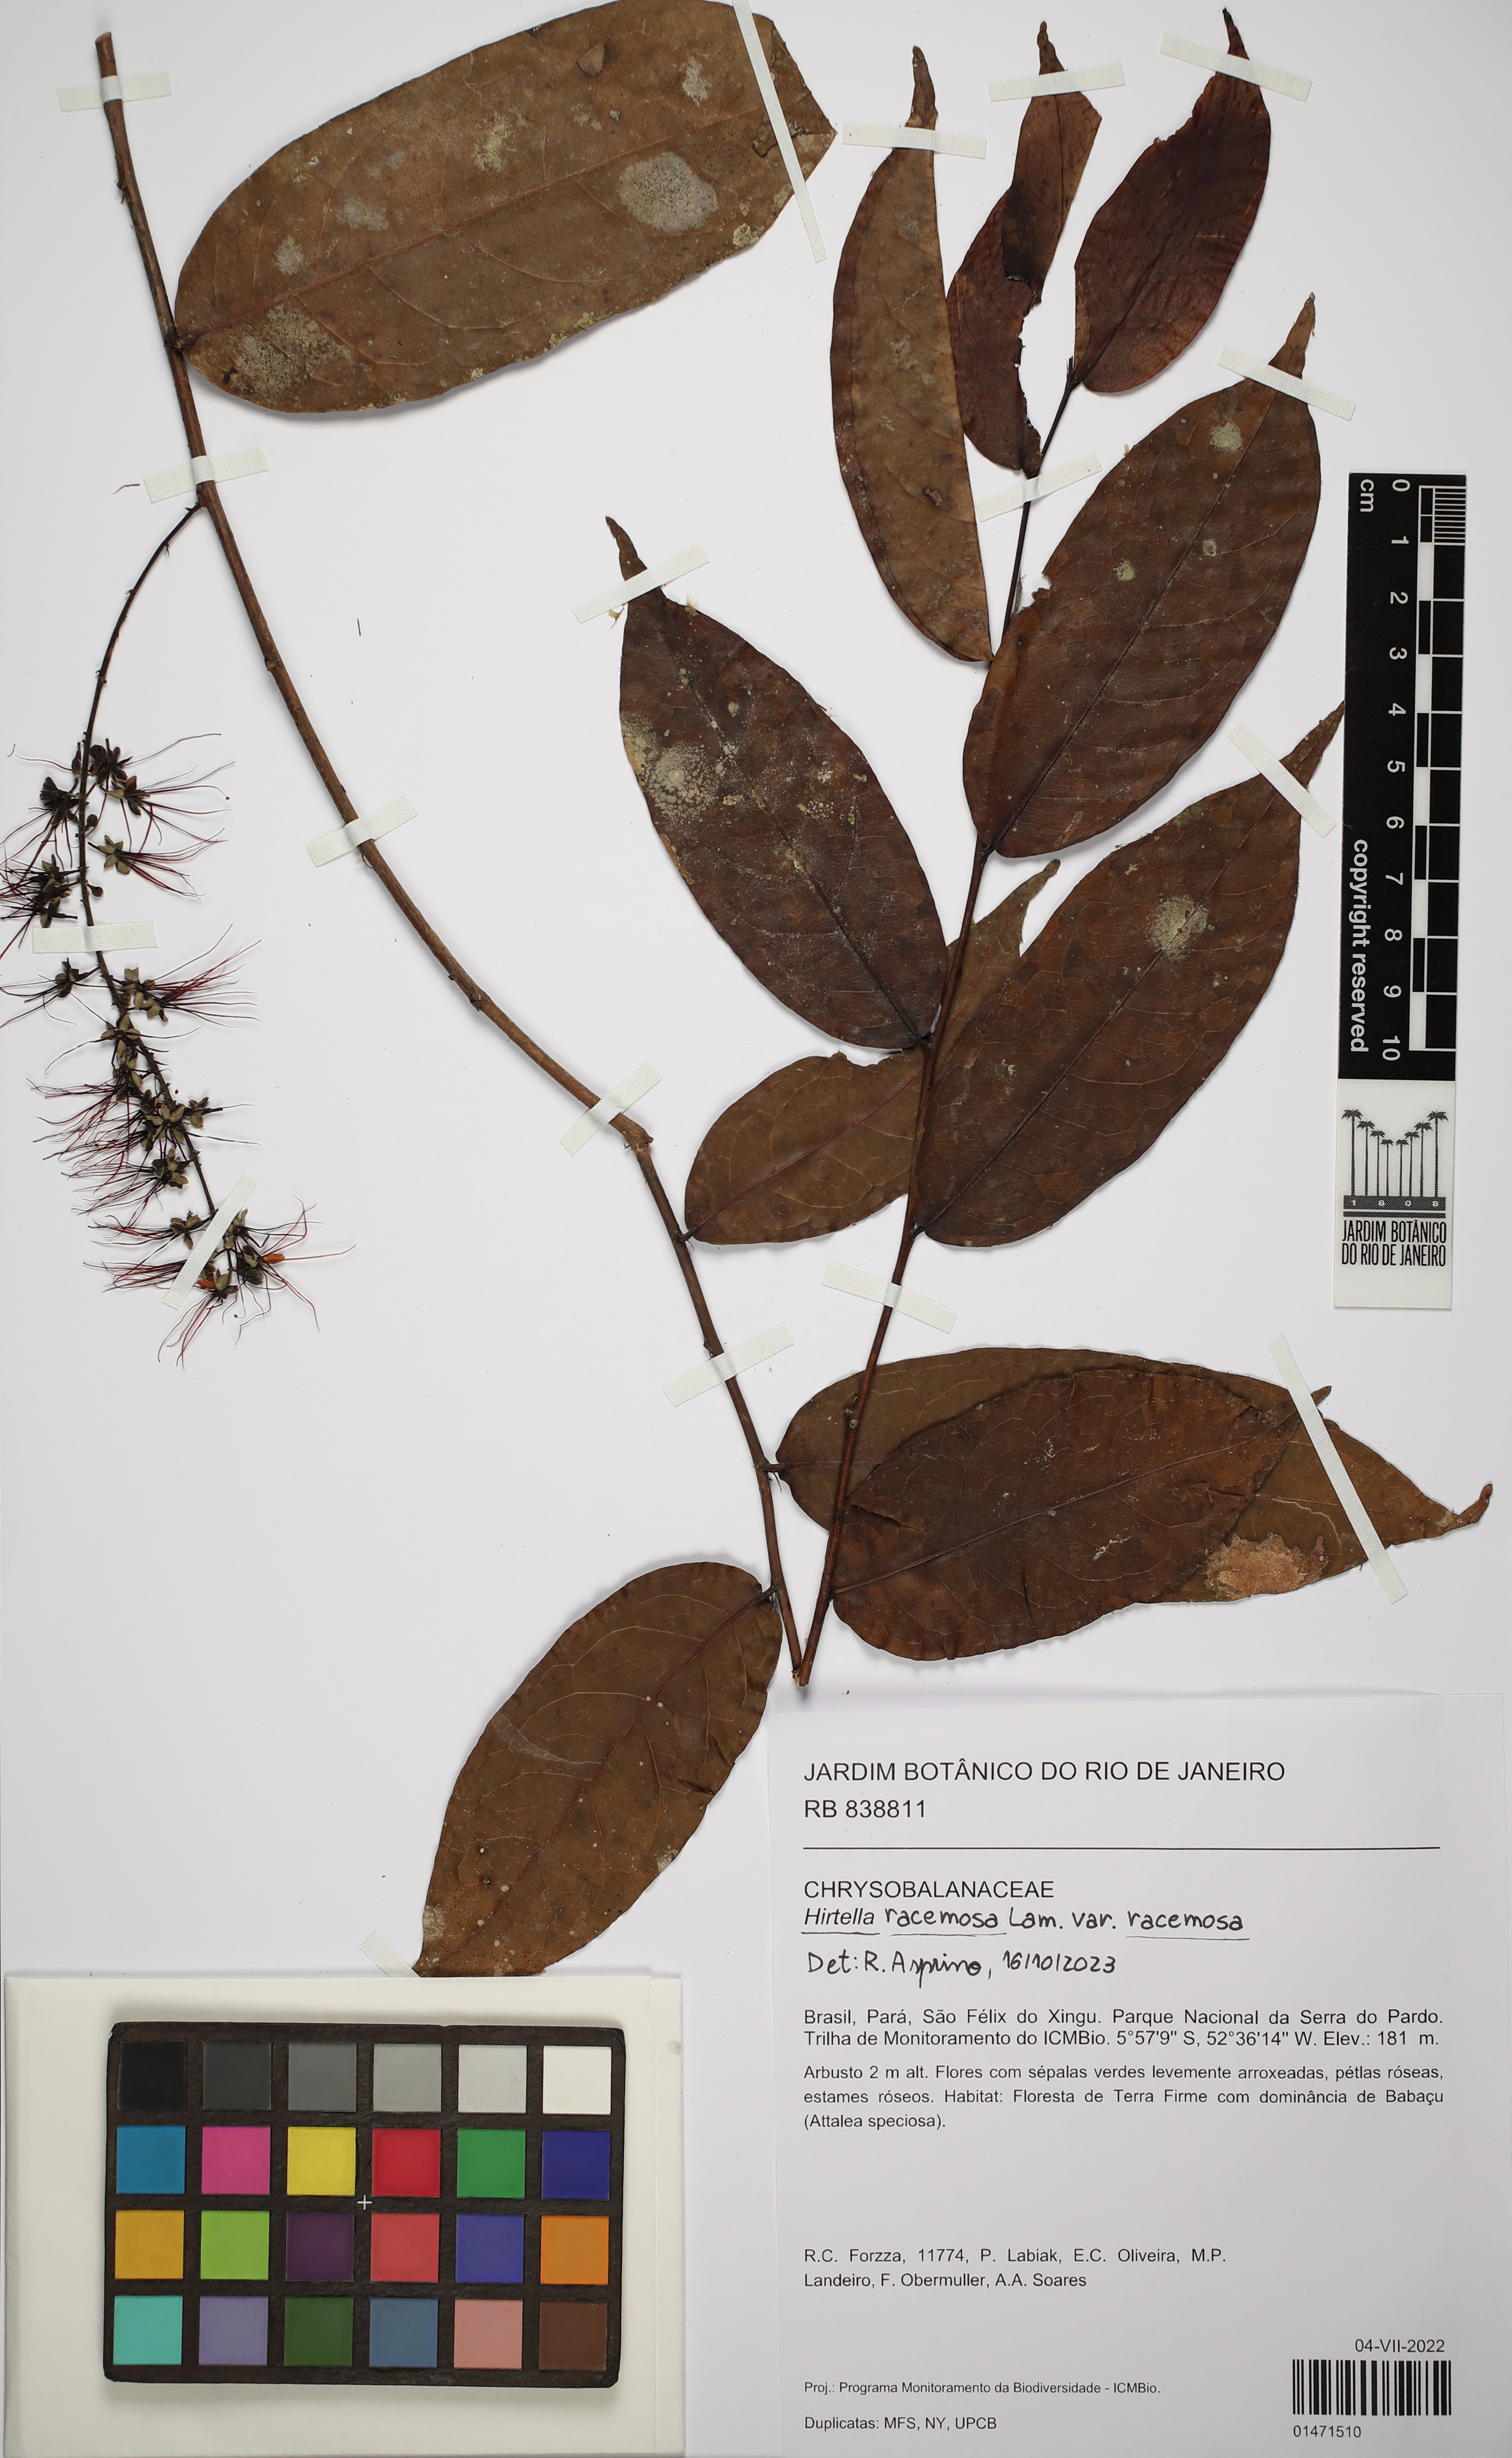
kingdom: Plantae
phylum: Tracheophyta
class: Magnoliopsida
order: Malpighiales
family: Chrysobalanaceae
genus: Hirtella
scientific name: Hirtella racemosa
